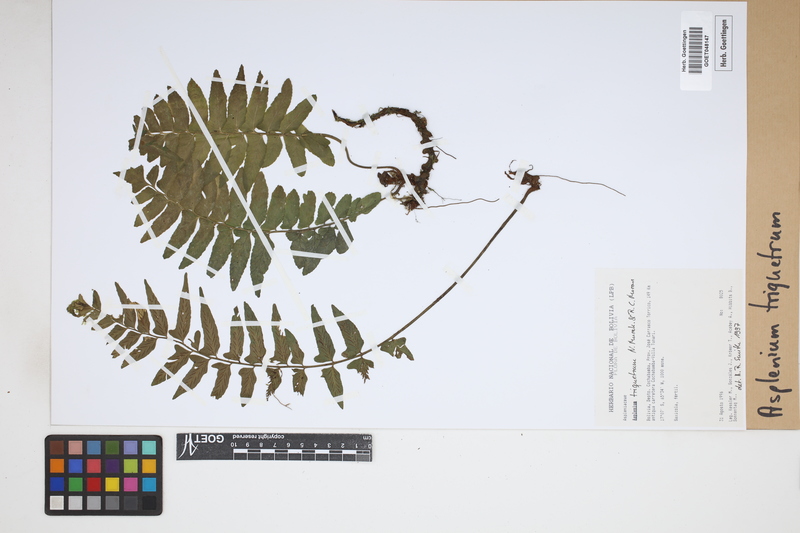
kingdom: Plantae
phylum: Tracheophyta
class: Polypodiopsida
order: Polypodiales
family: Aspleniaceae
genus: Hymenasplenium
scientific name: Hymenasplenium triquetrum
